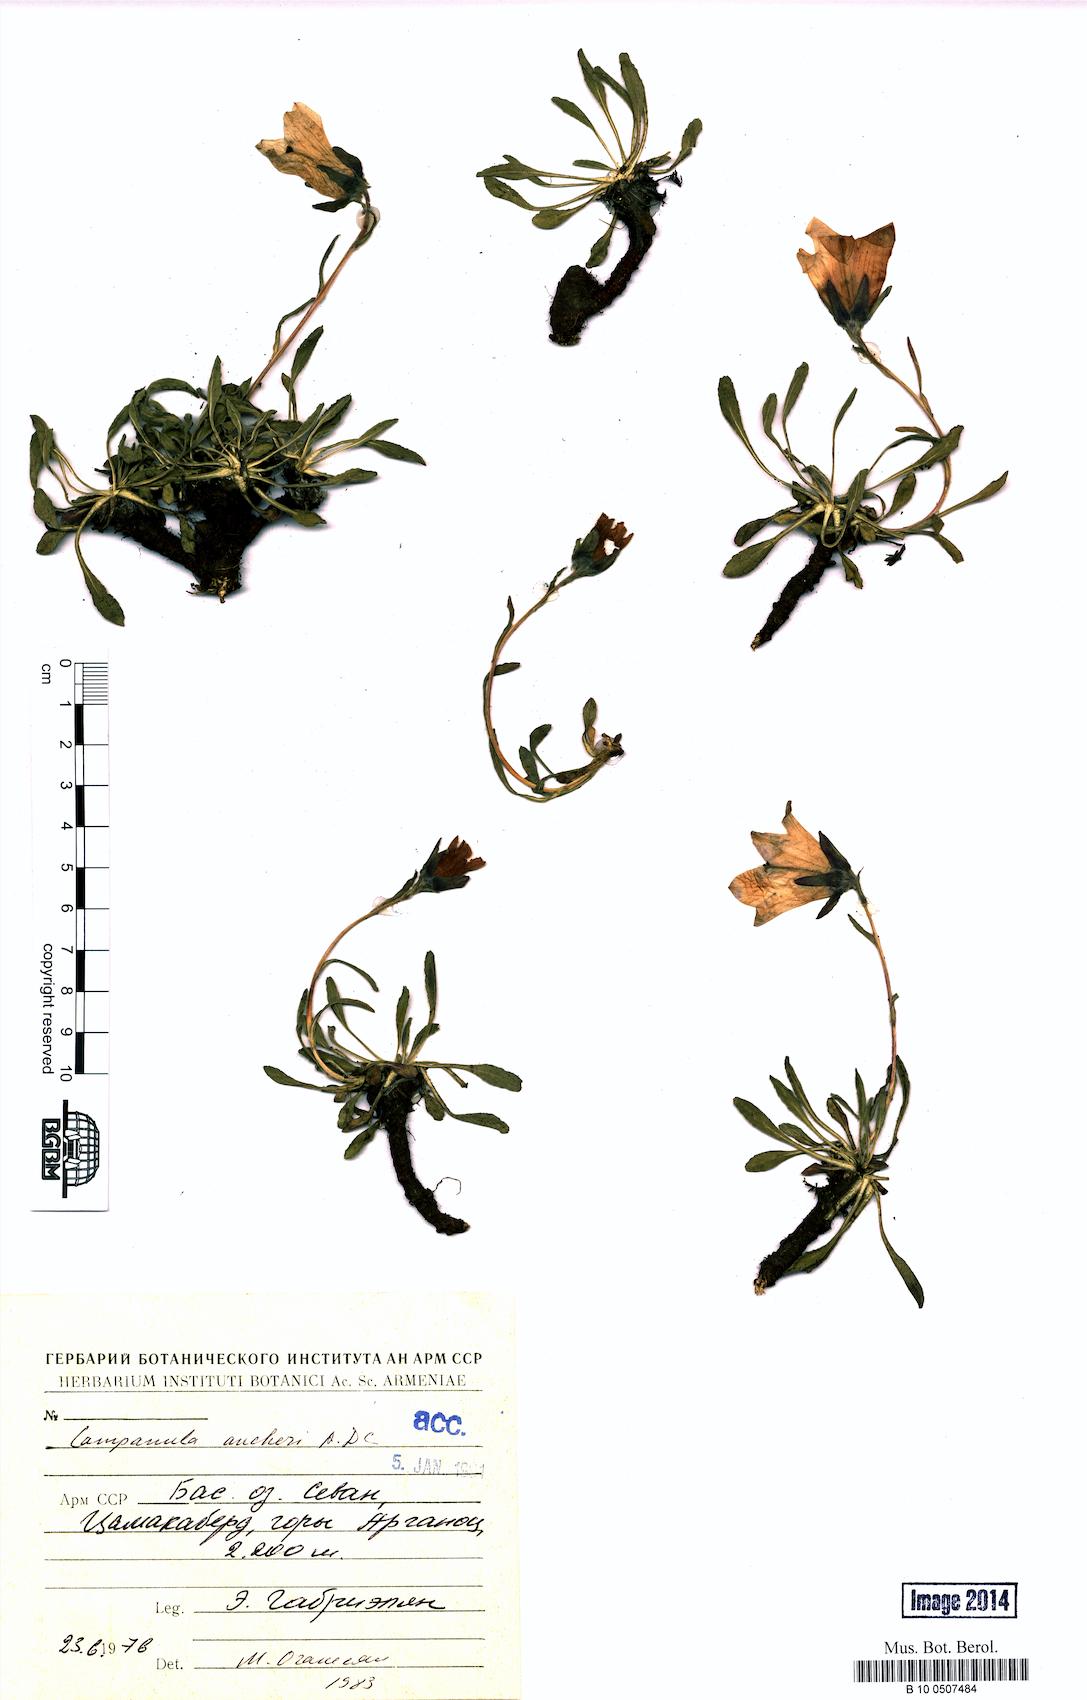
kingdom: Plantae
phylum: Tracheophyta
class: Magnoliopsida
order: Asterales
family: Campanulaceae
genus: Campanula
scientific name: Campanula saxifraga
